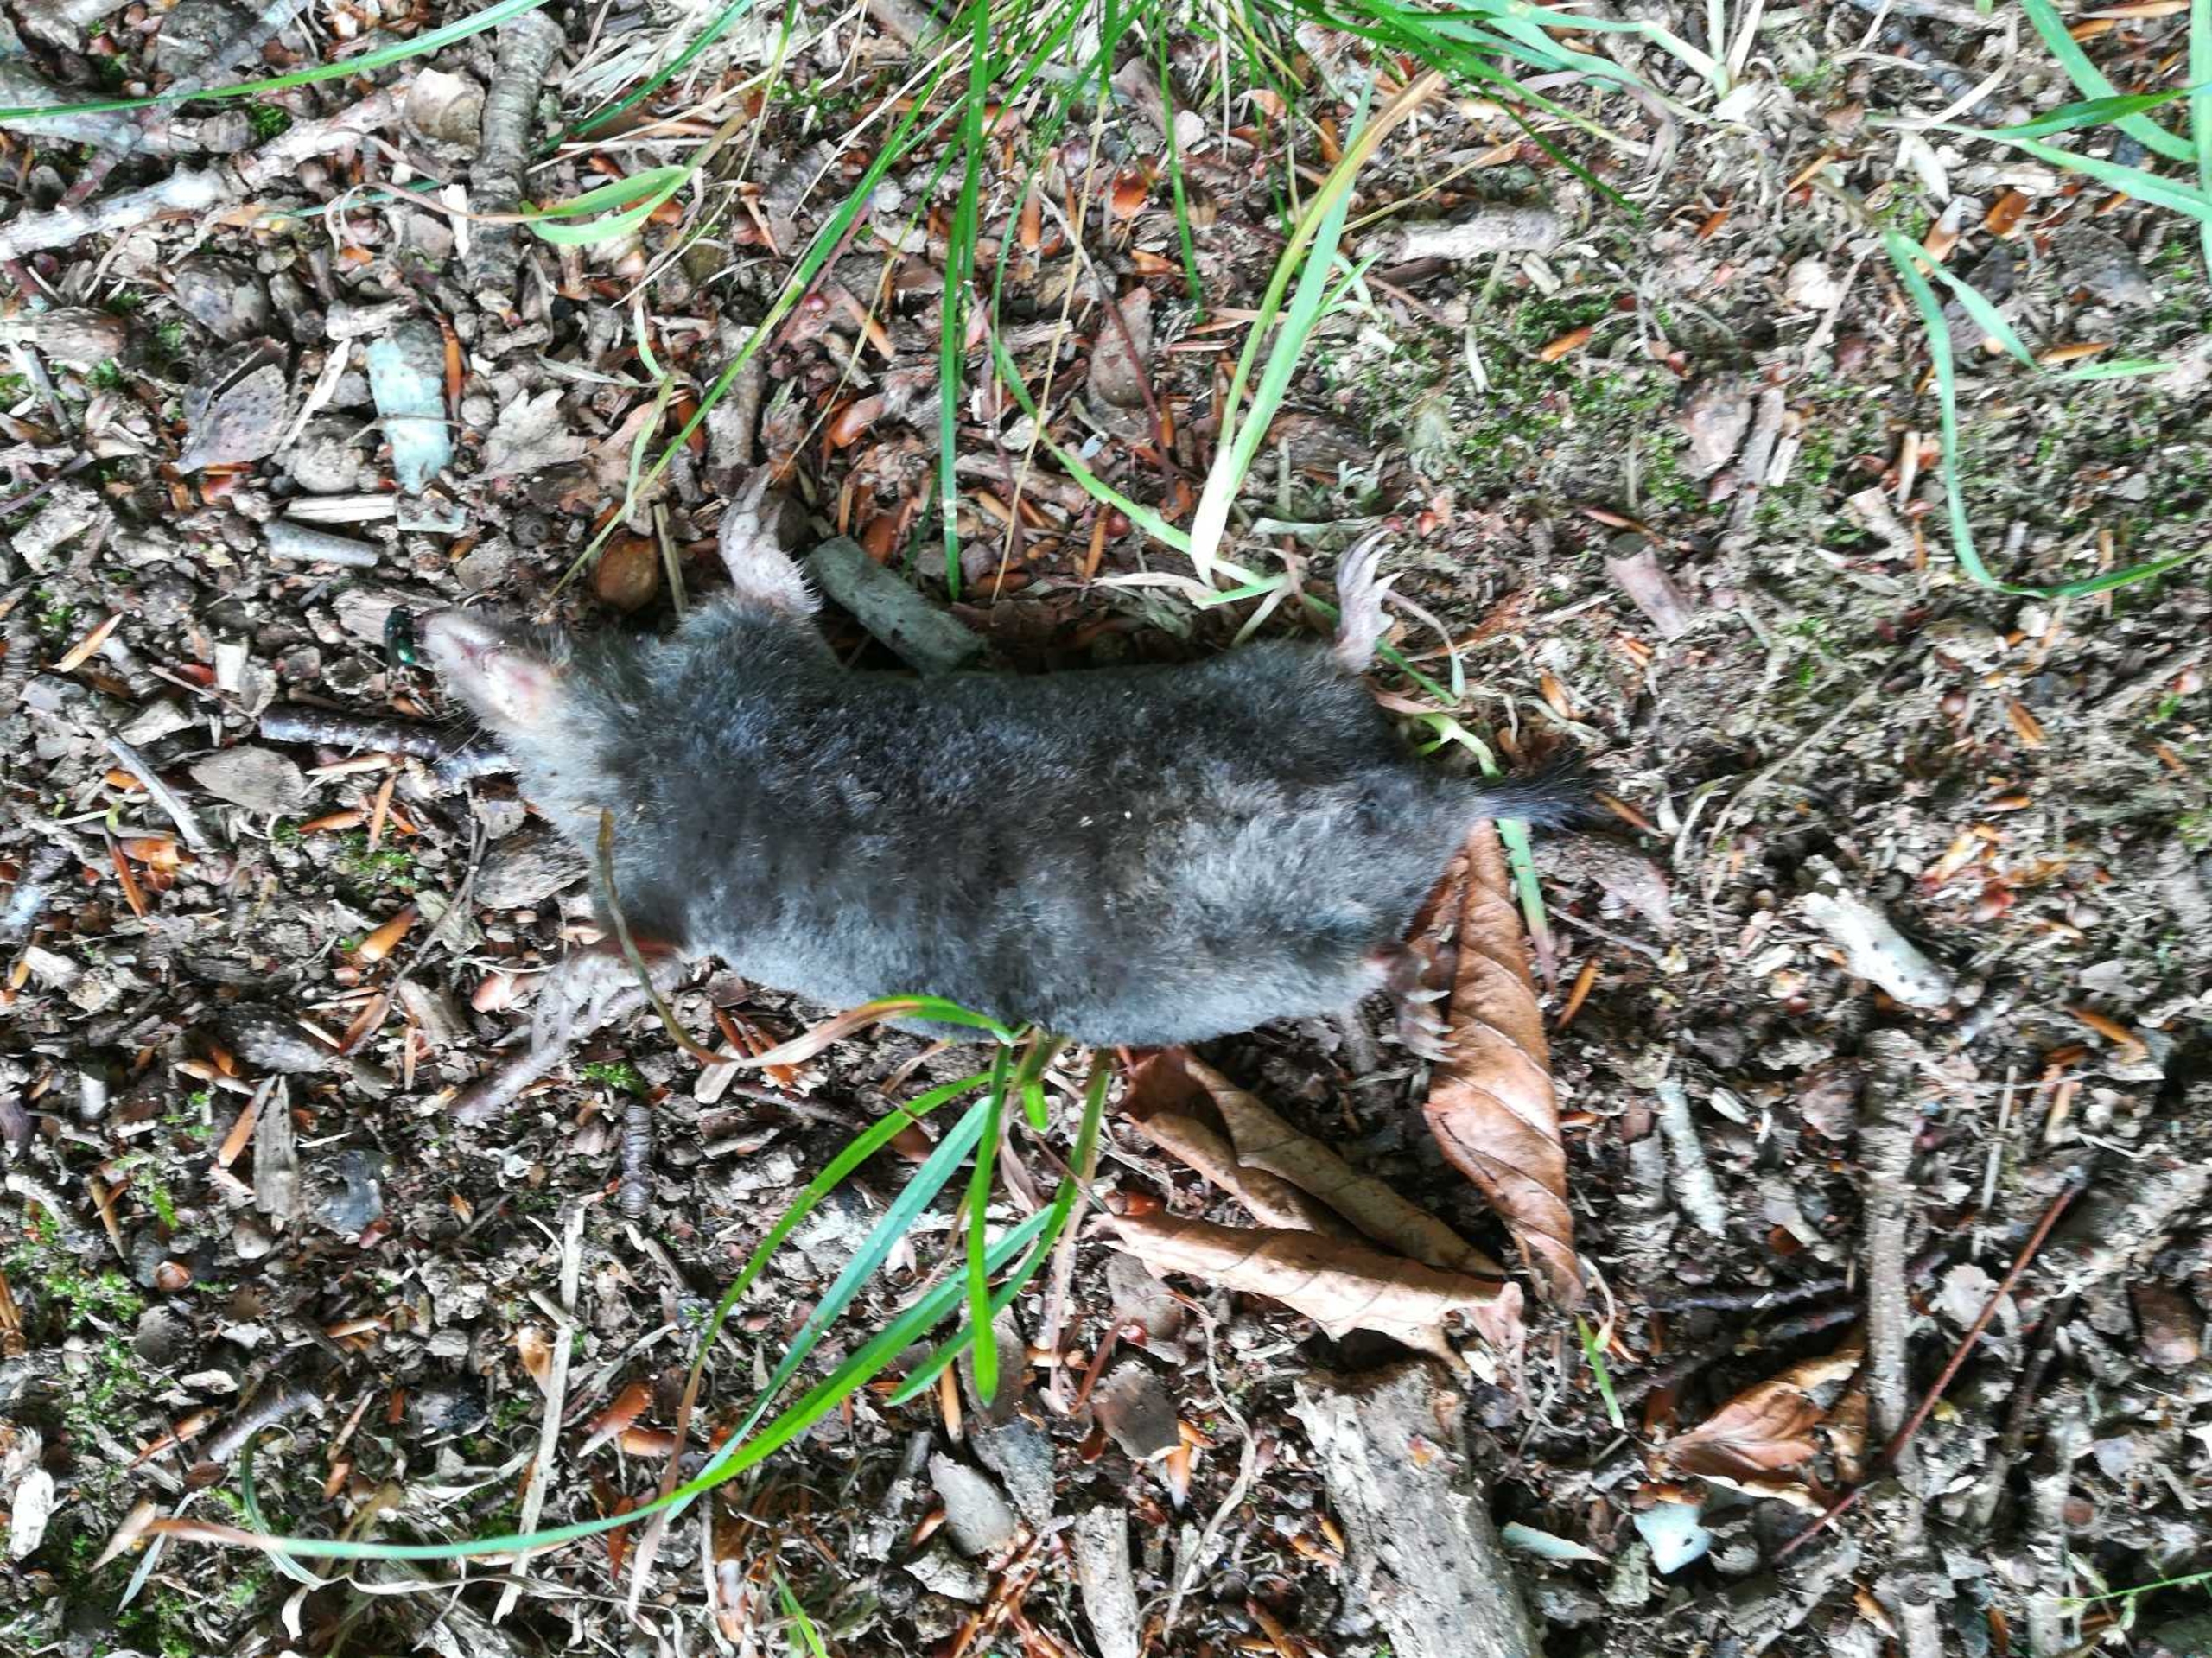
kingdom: Animalia
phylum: Chordata
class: Mammalia
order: Soricomorpha
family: Talpidae
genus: Talpa
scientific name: Talpa europaea
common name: Muldvarp
